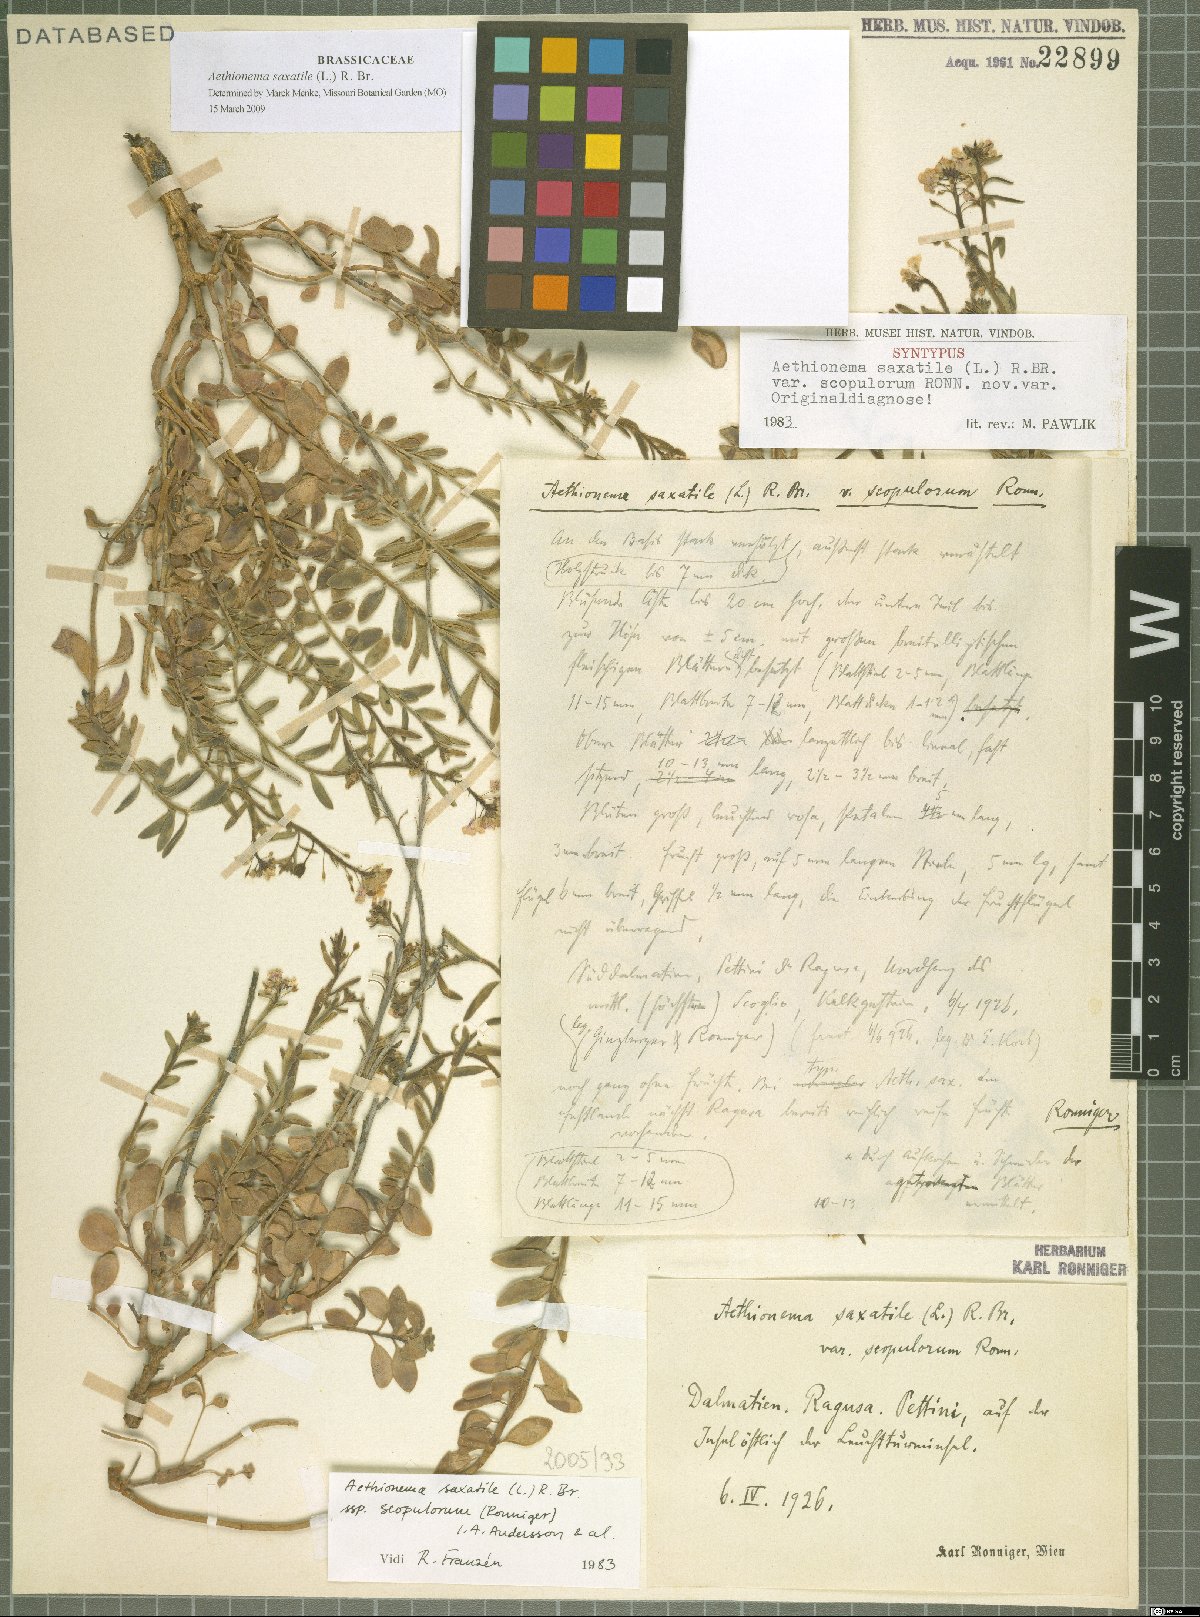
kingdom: Plantae
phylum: Tracheophyta
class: Magnoliopsida
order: Brassicales
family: Brassicaceae
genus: Aethionema
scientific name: Aethionema saxatile
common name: Burnt candytuft
